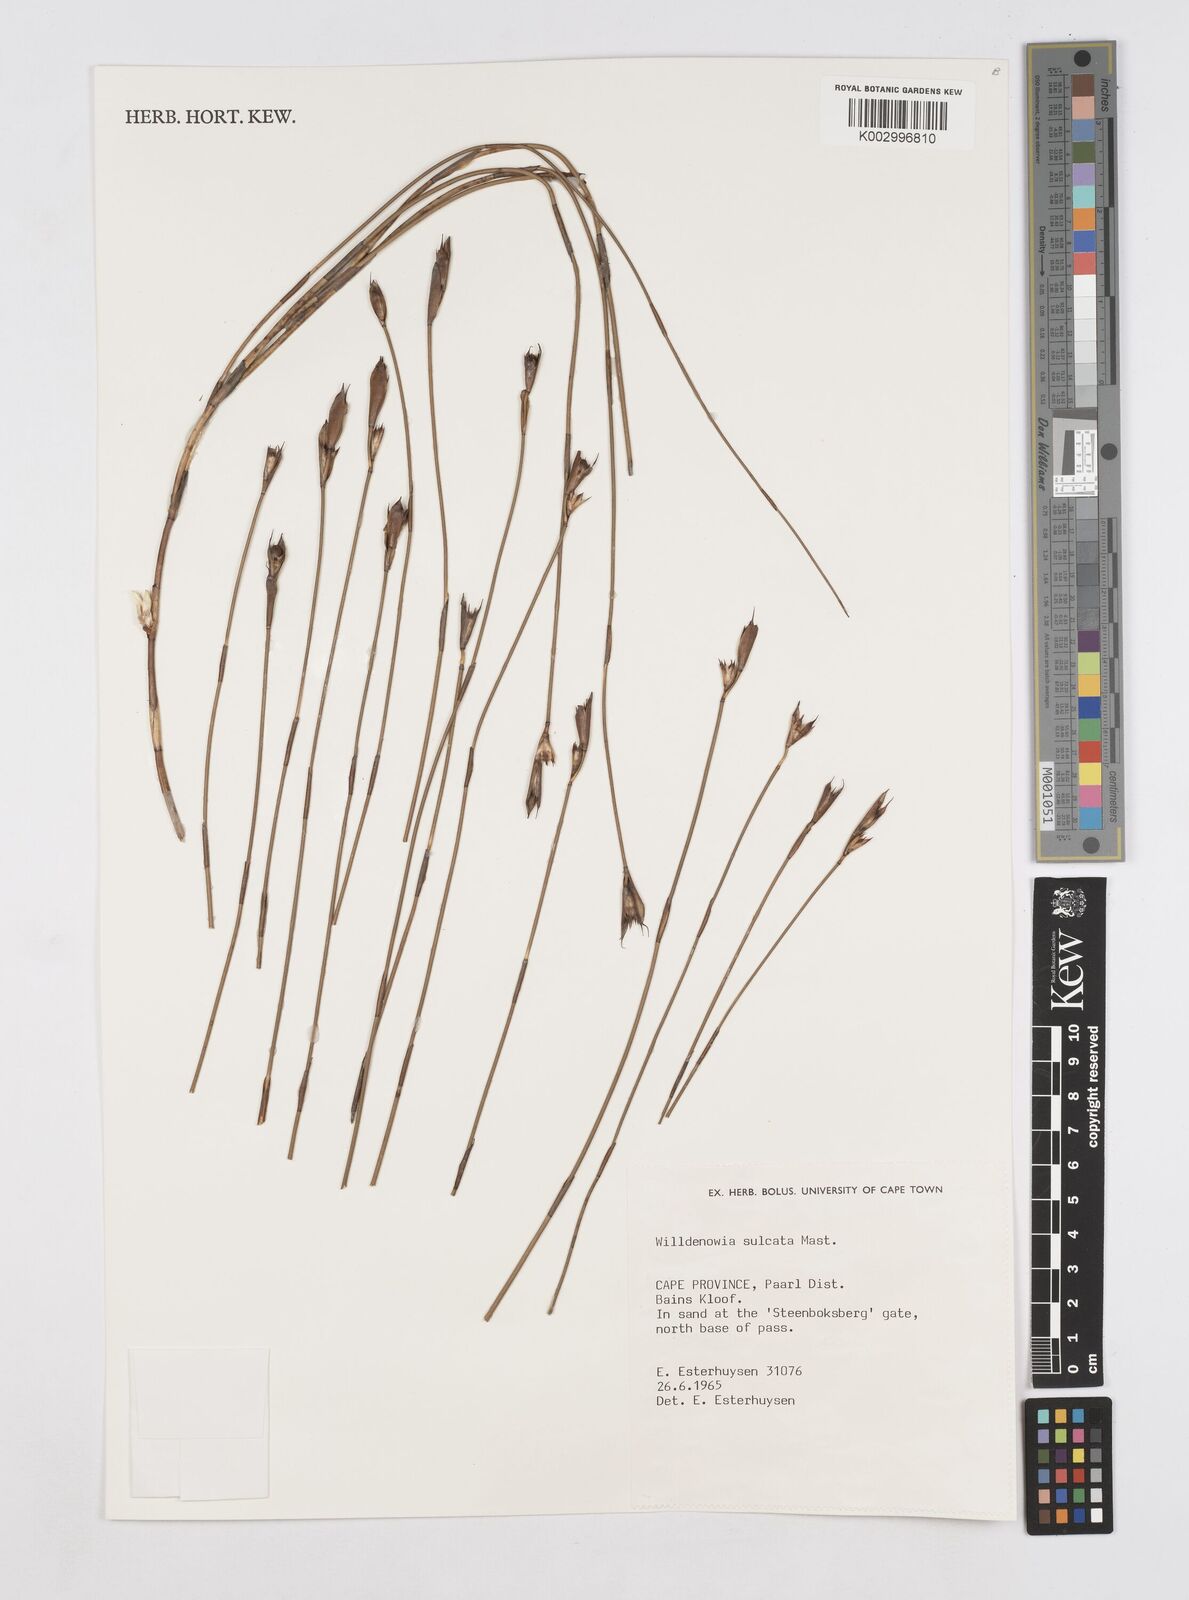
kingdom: Plantae
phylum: Tracheophyta
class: Liliopsida
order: Poales
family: Restionaceae
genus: Willdenowia
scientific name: Willdenowia sulcata
